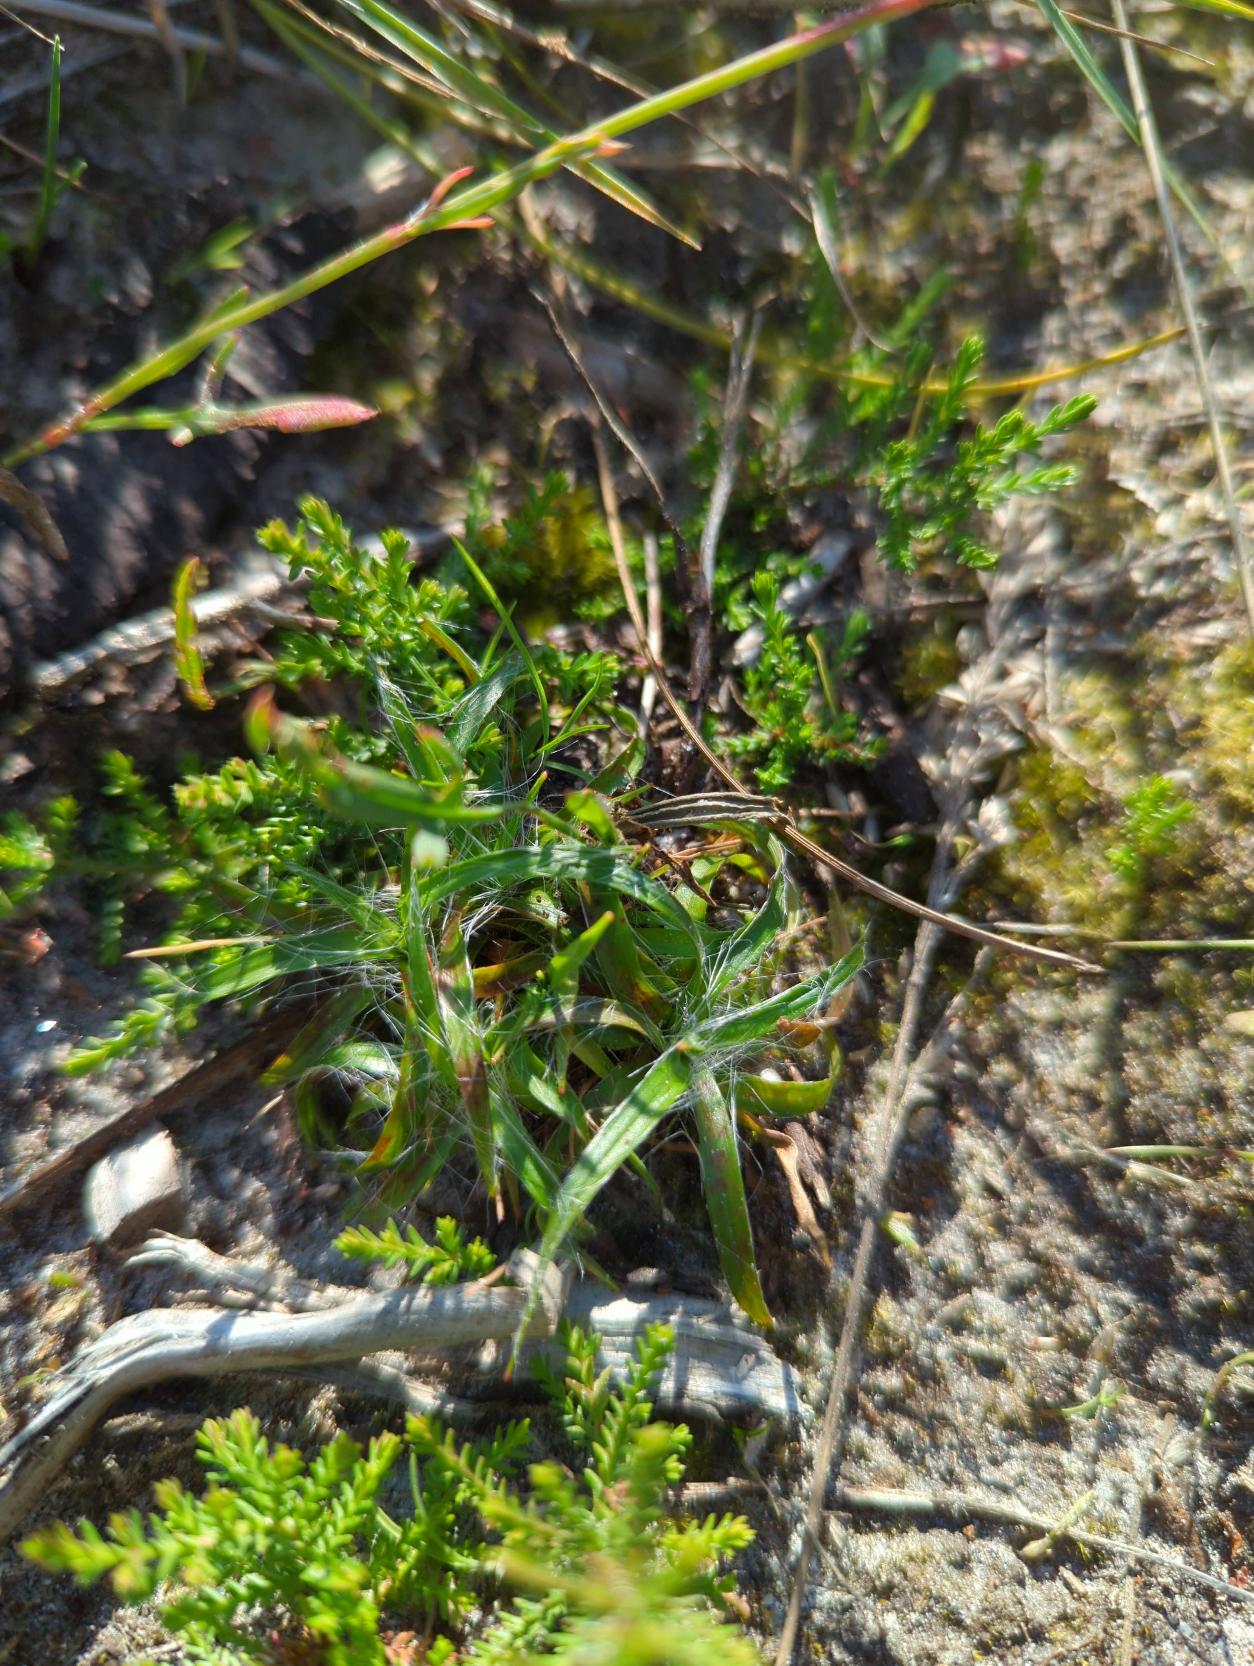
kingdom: Plantae
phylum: Tracheophyta
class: Liliopsida
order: Poales
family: Juncaceae
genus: Luzula
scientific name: Luzula campestris
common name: Mark-frytle
